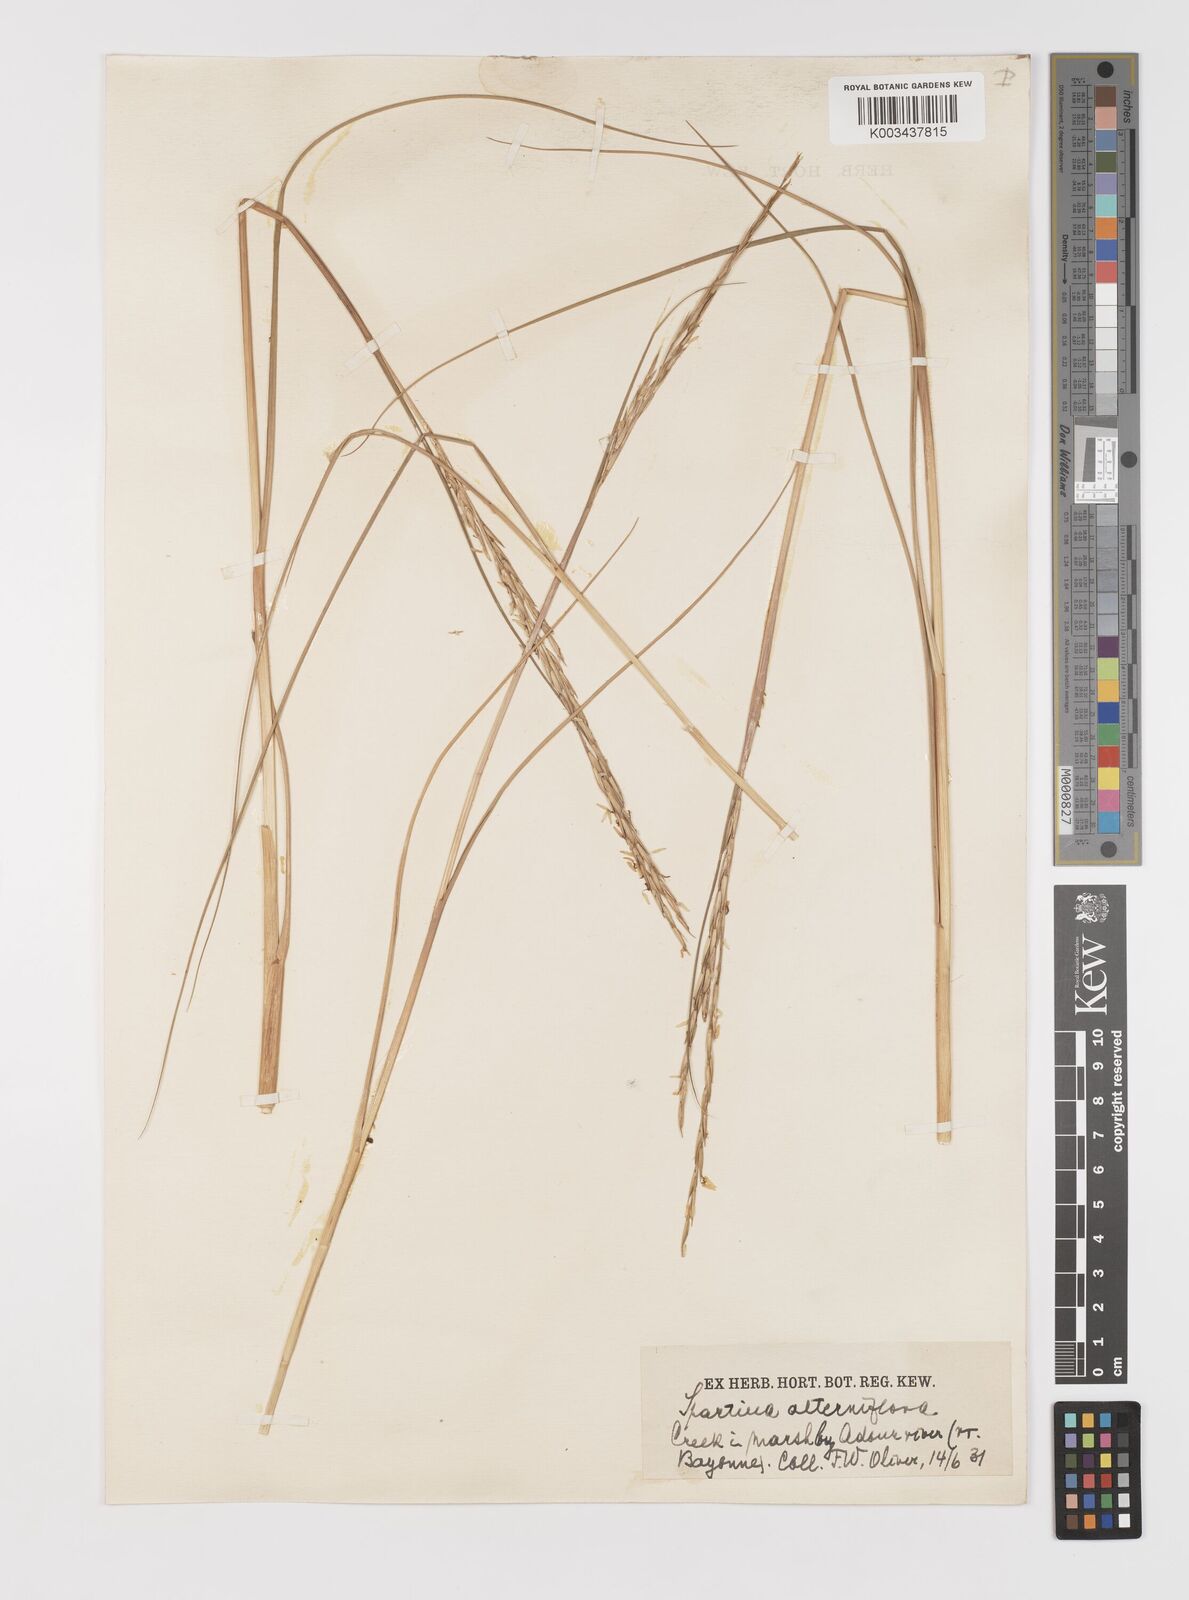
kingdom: Plantae
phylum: Tracheophyta
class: Liliopsida
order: Poales
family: Poaceae
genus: Sporobolus
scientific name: Sporobolus alterniflorus
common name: Atlantic cordgrass
